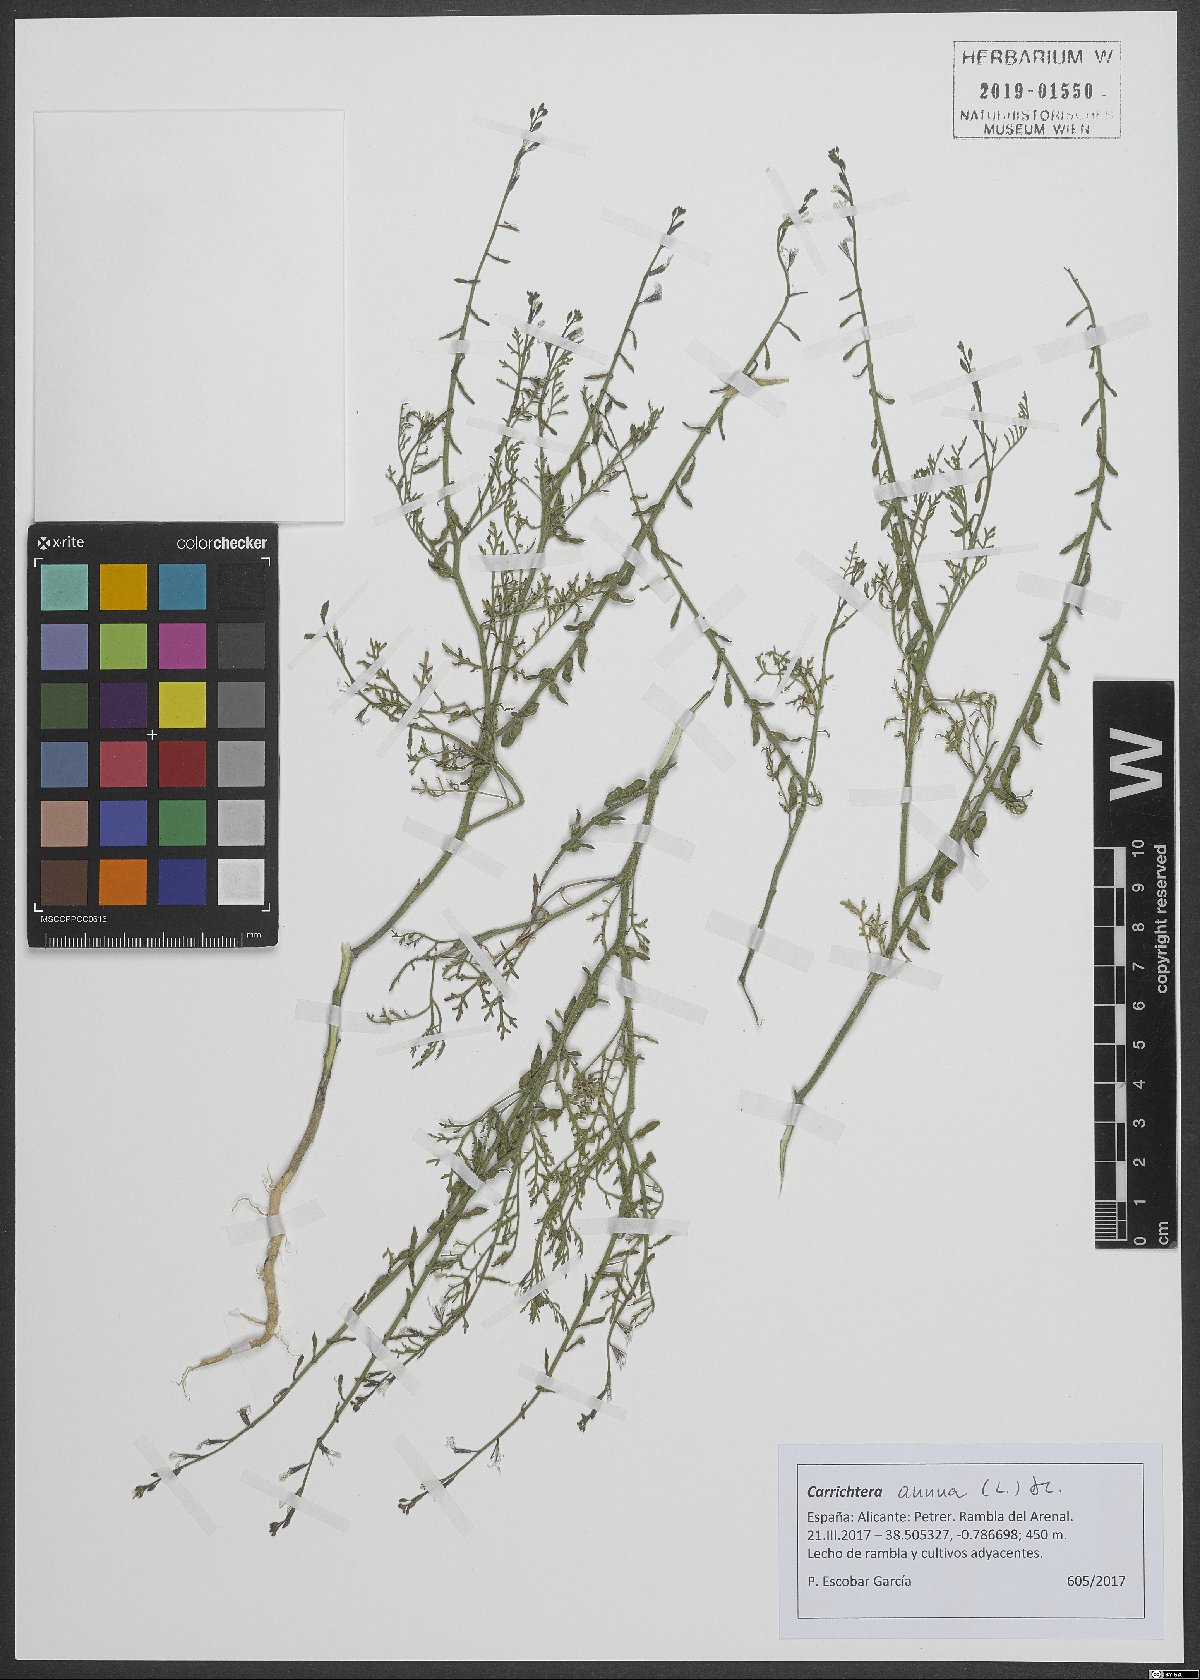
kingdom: Plantae
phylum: Tracheophyta
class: Magnoliopsida
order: Brassicales
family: Brassicaceae
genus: Carrichtera
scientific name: Carrichtera annua
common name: Cress rocket
